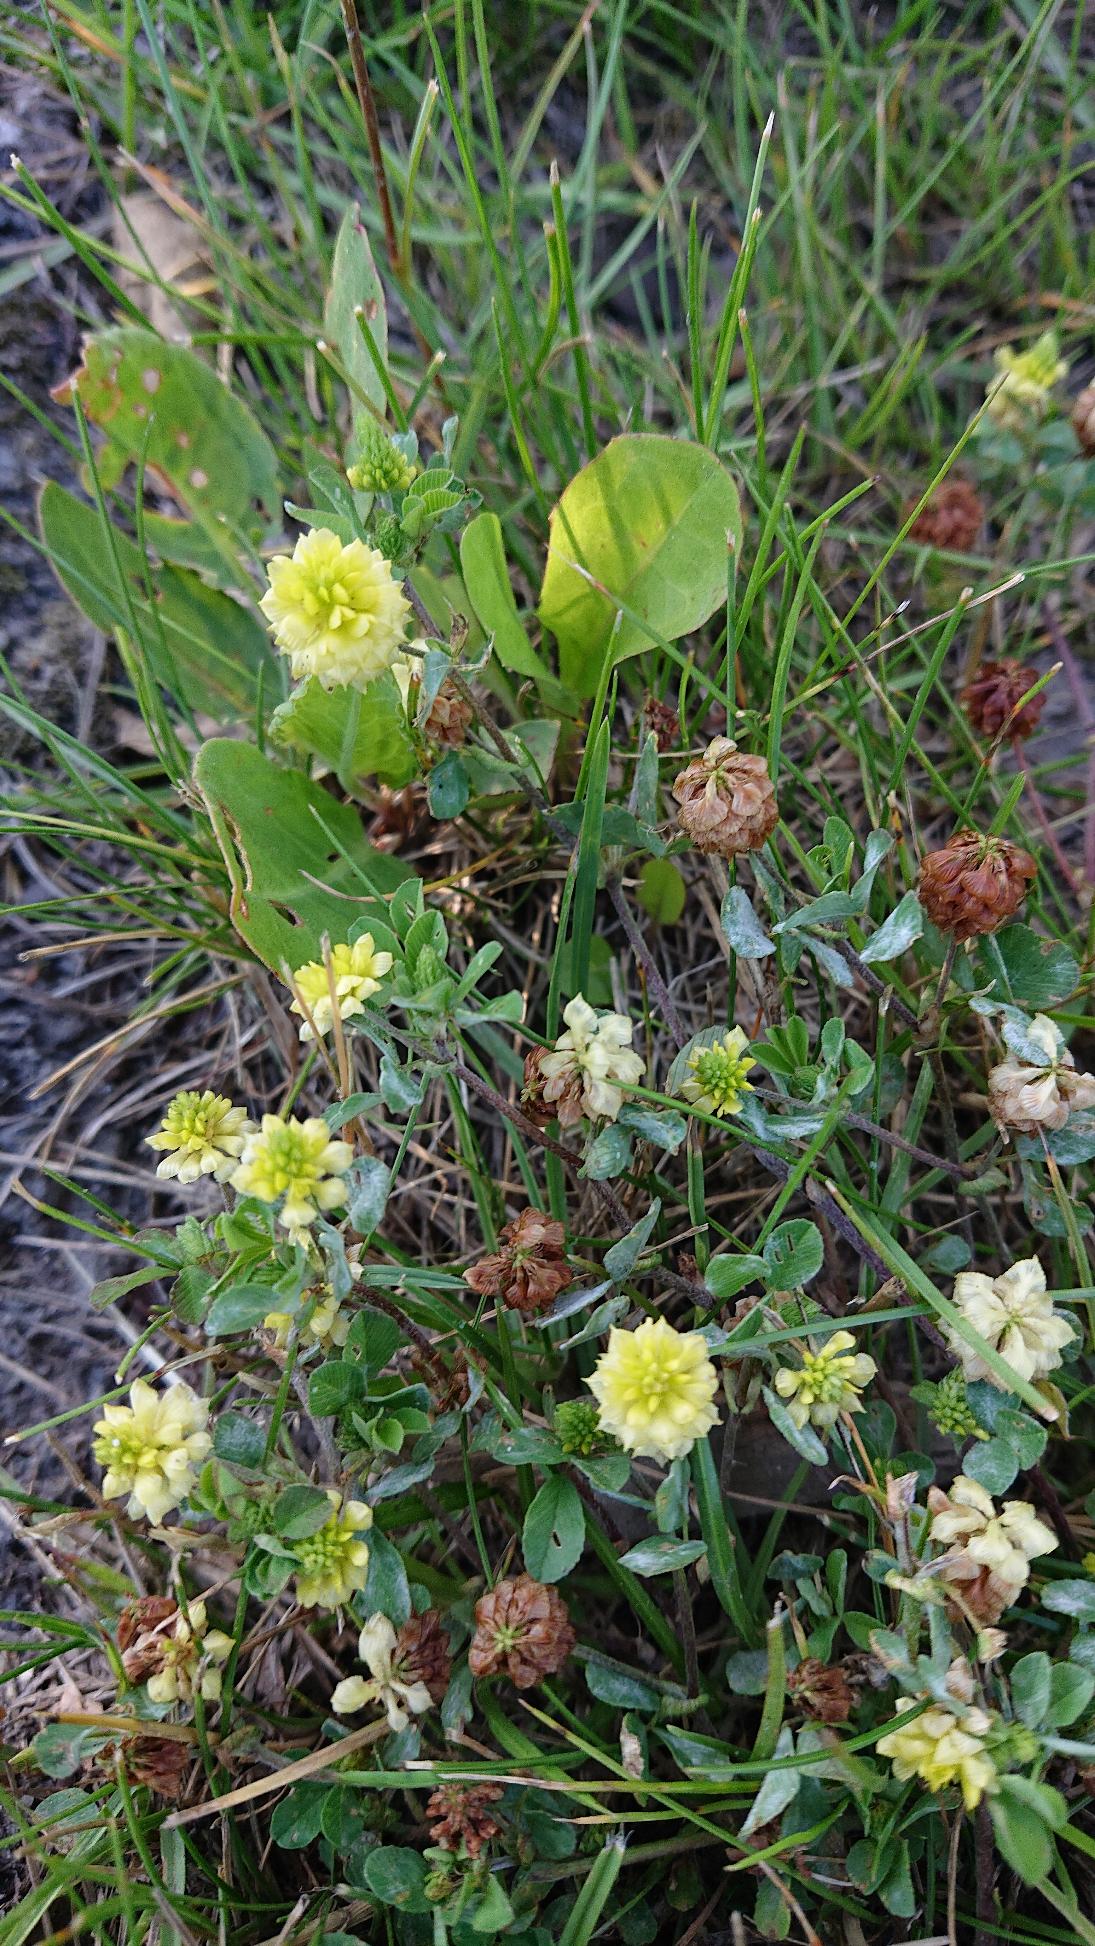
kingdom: Plantae
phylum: Tracheophyta
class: Magnoliopsida
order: Fabales
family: Fabaceae
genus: Trifolium
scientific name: Trifolium campestre
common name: Gul kløver
